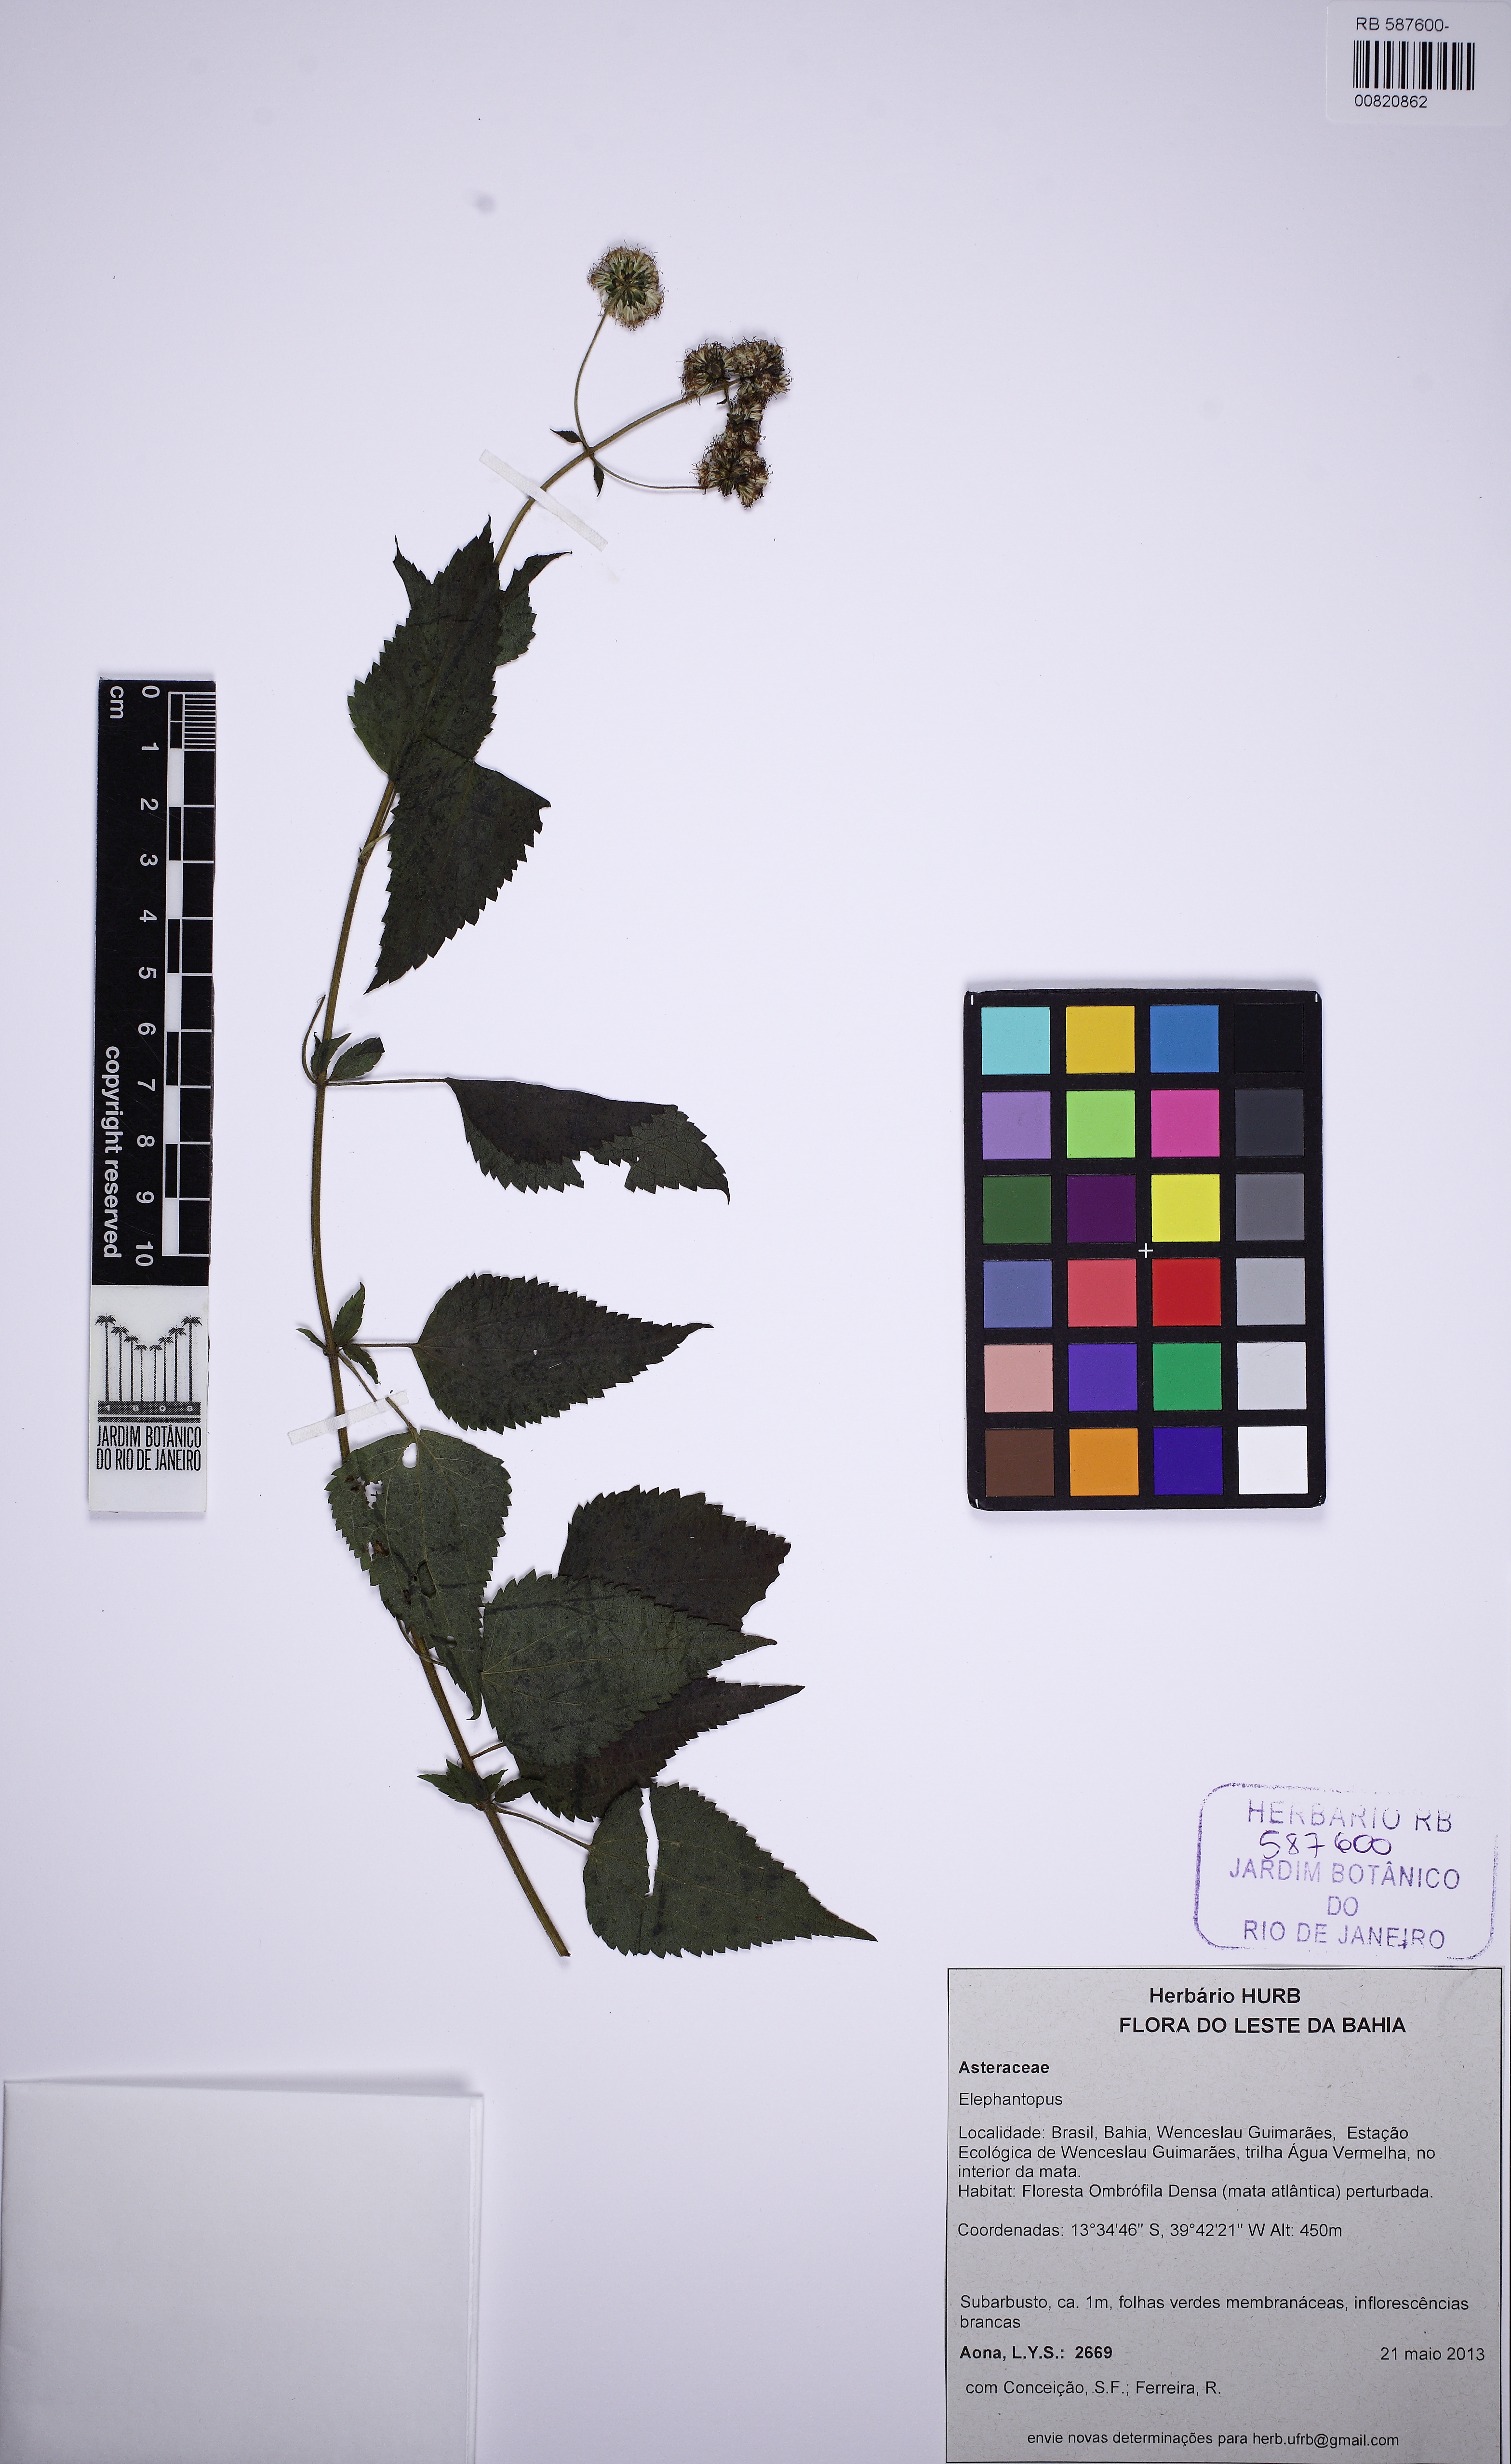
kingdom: Plantae
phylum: Tracheophyta
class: Magnoliopsida
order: Asterales
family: Asteraceae
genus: Elephantopus
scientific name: Elephantopus
